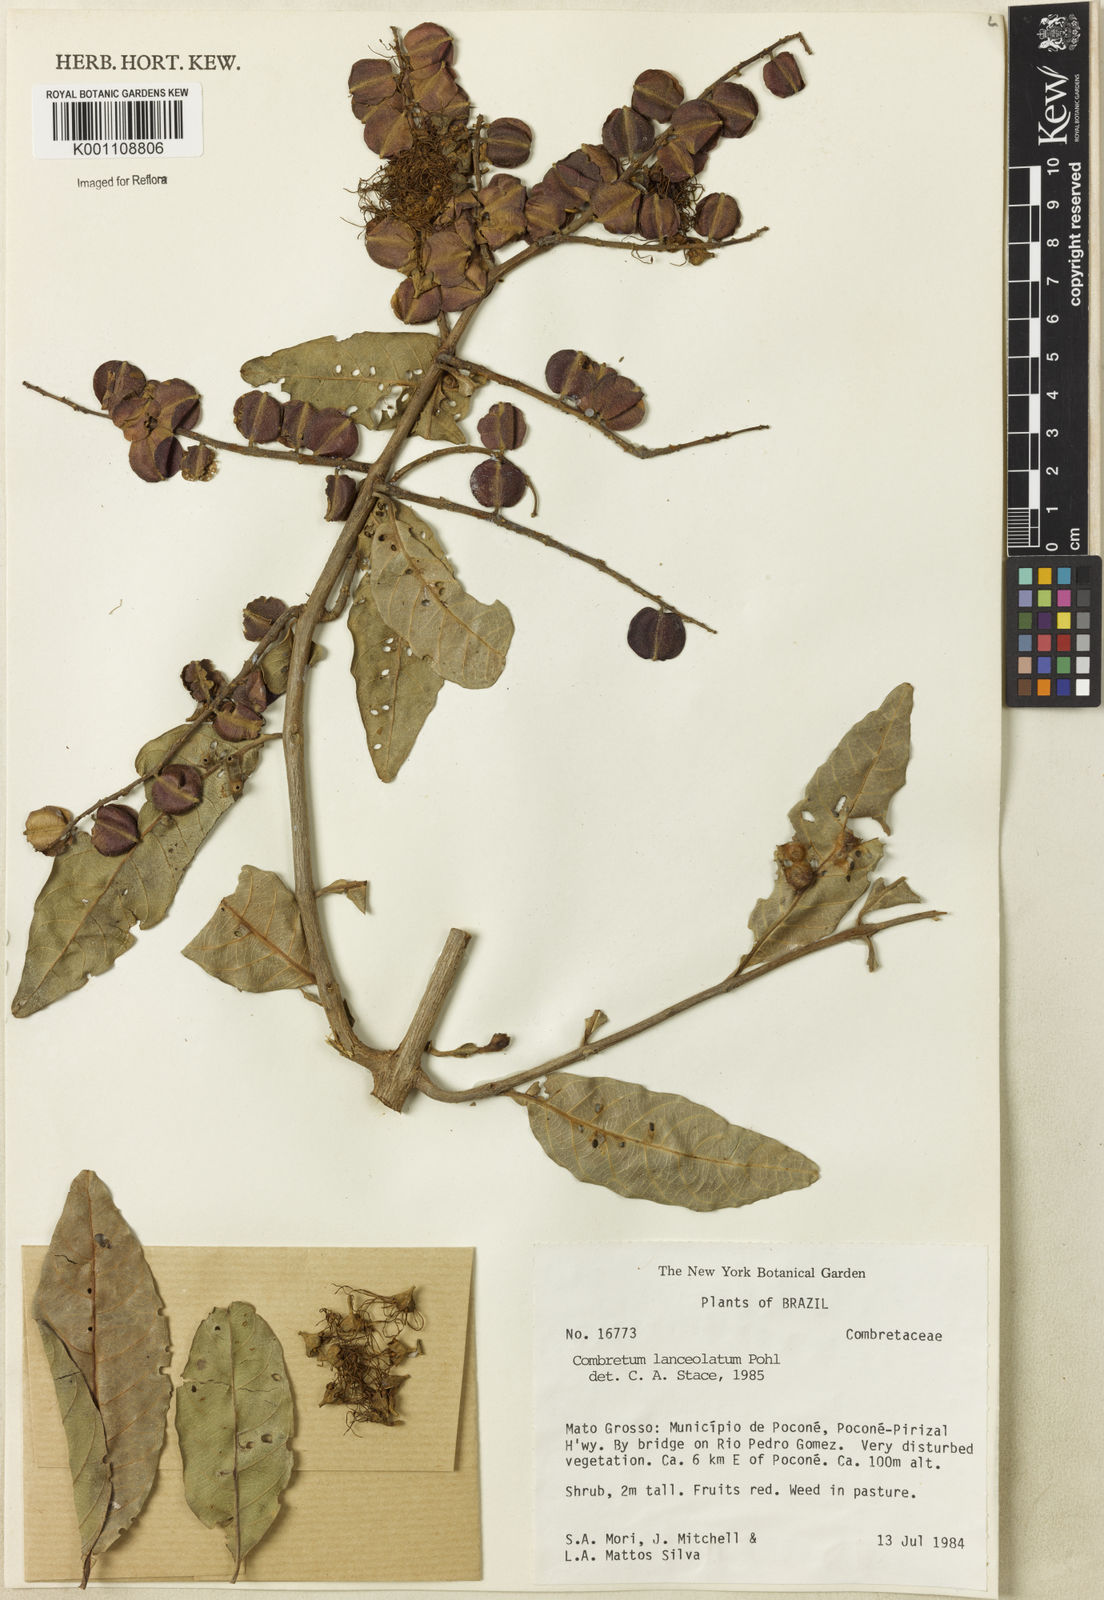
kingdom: Plantae
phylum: Tracheophyta
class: Magnoliopsida
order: Myrtales
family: Combretaceae
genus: Combretum
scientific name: Combretum lanceolatum
